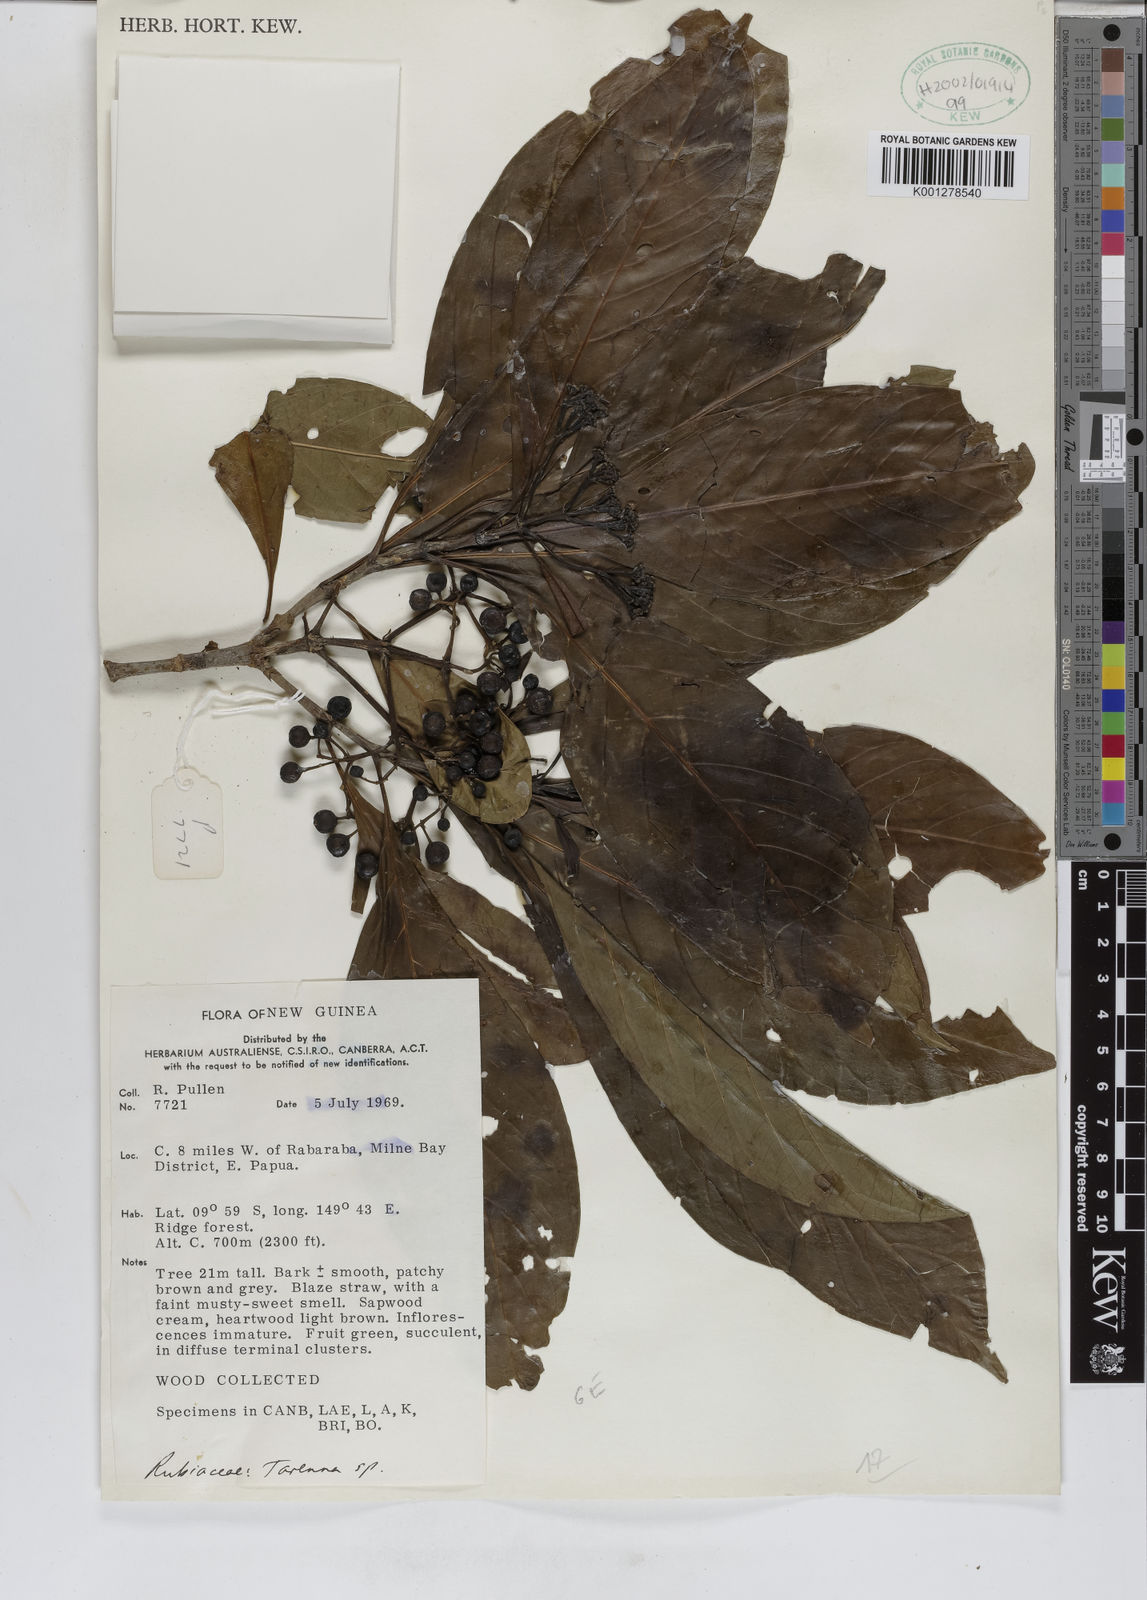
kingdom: Plantae
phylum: Tracheophyta
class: Magnoliopsida
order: Gentianales
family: Rubiaceae
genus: Tarenna
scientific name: Tarenna
